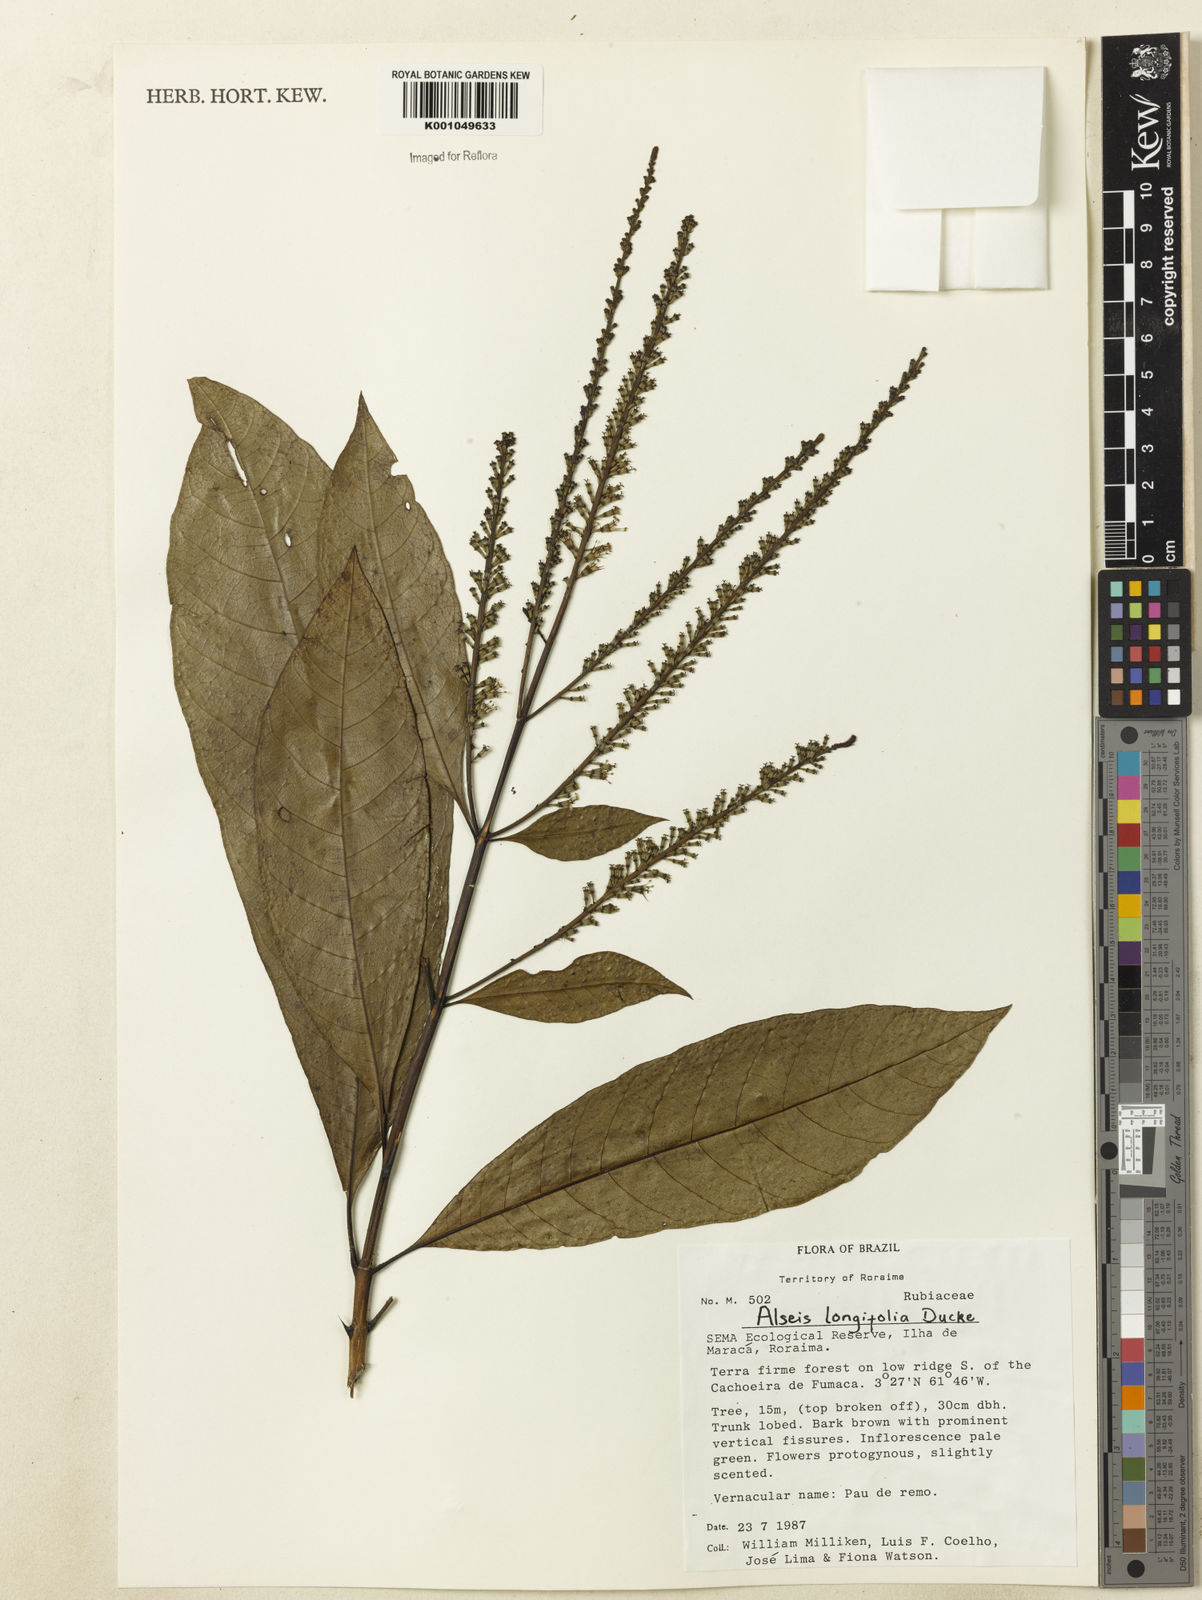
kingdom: Plantae
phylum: Tracheophyta
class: Magnoliopsida
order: Gentianales
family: Rubiaceae
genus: Alseis
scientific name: Alseis longifolia
